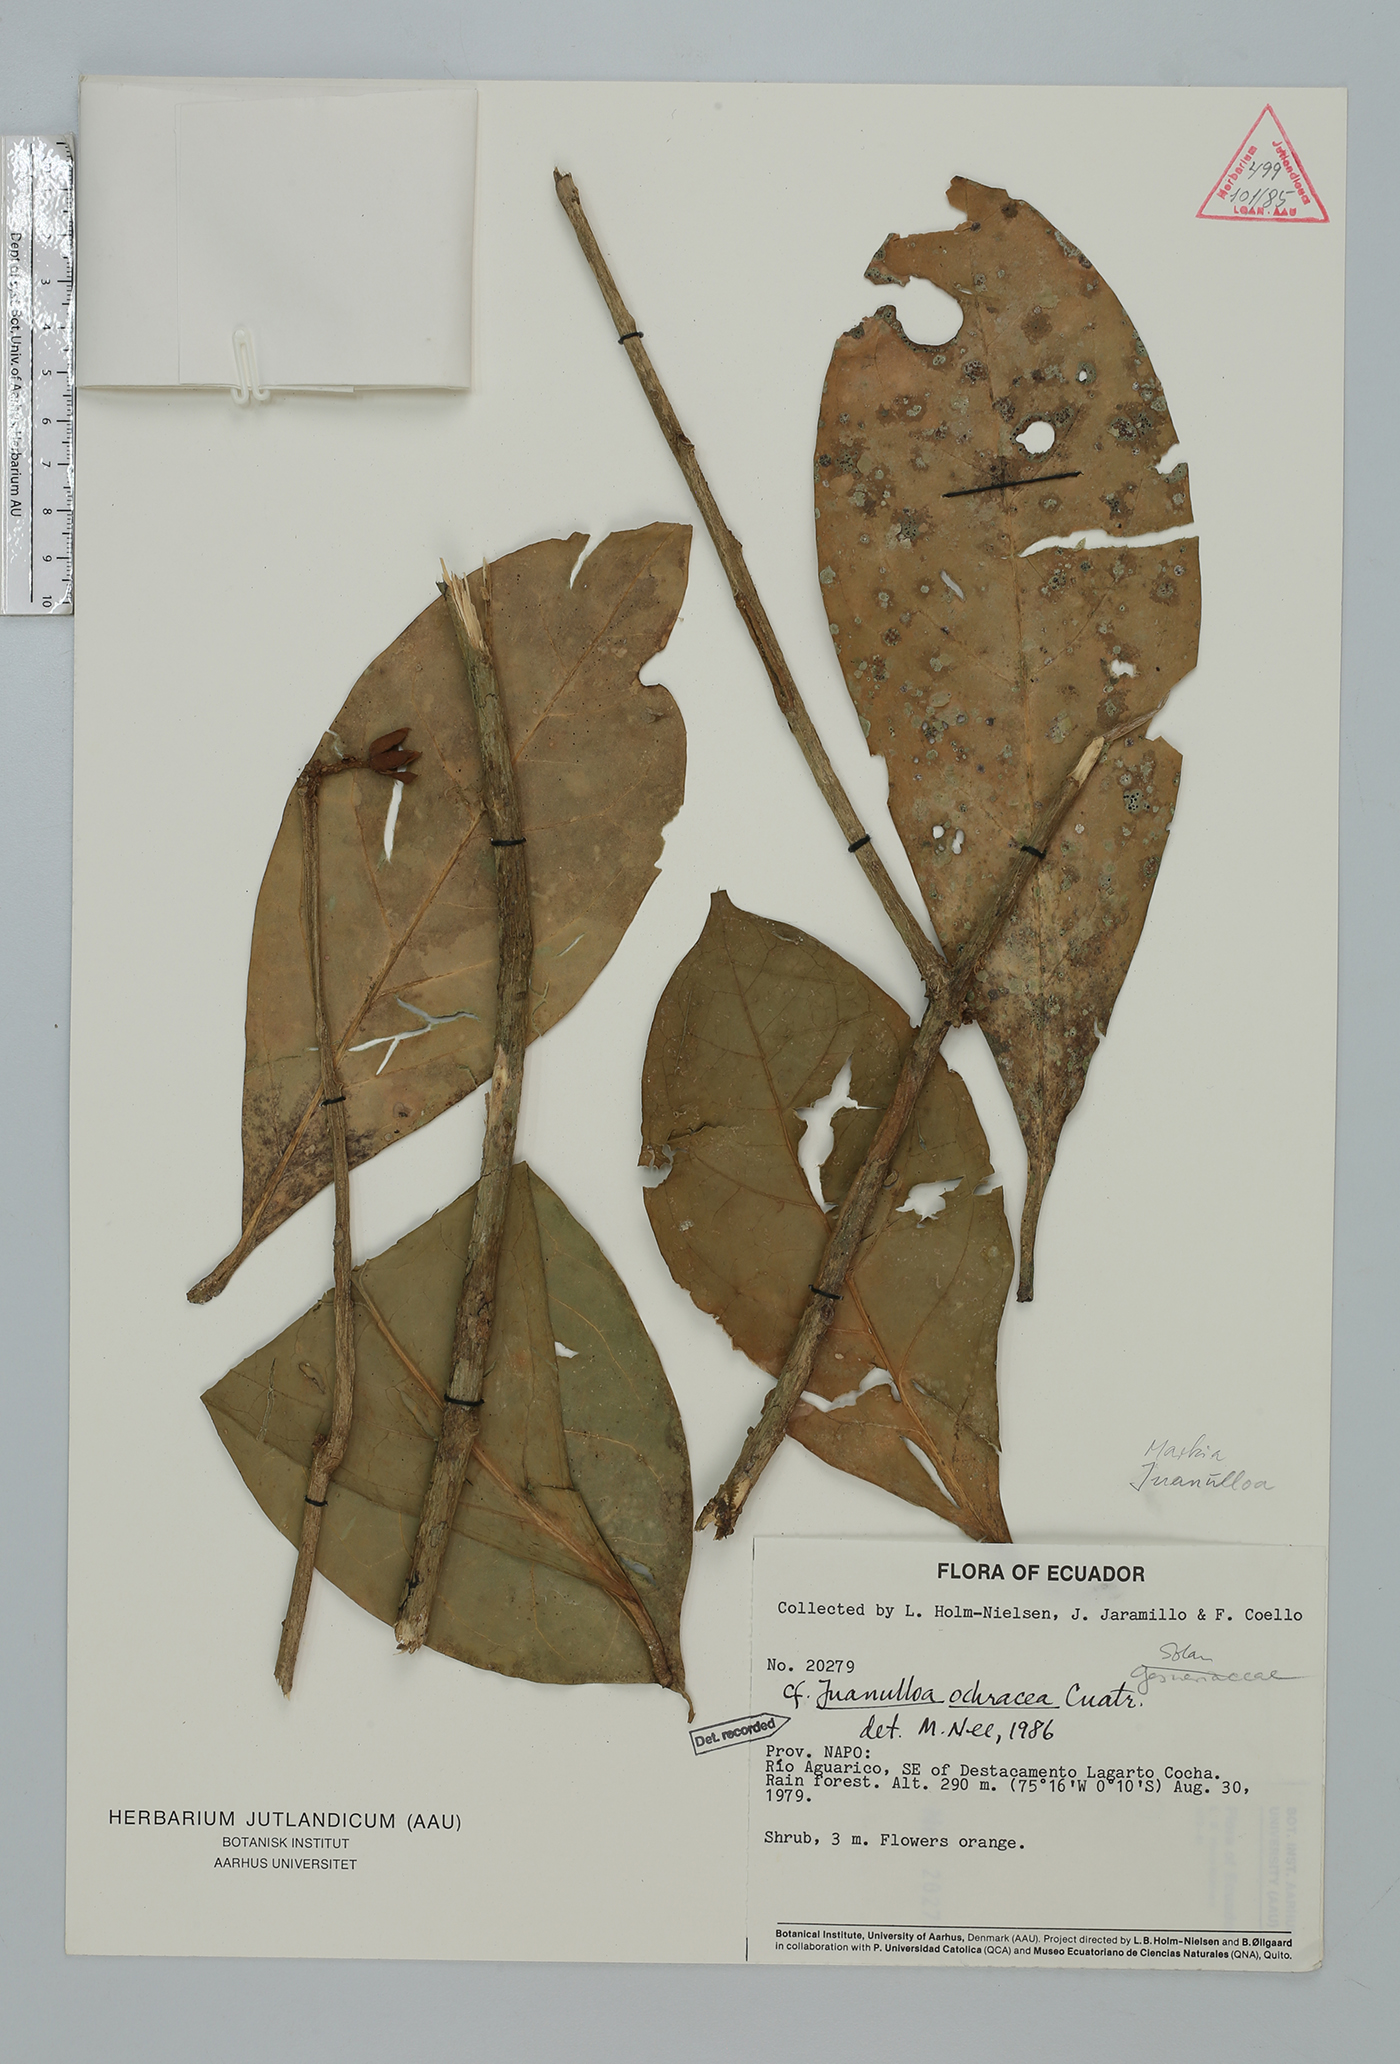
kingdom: Plantae
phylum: Tracheophyta
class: Magnoliopsida
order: Solanales
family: Solanaceae
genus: Hawkesiophyton
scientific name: Hawkesiophyton ochraceum
